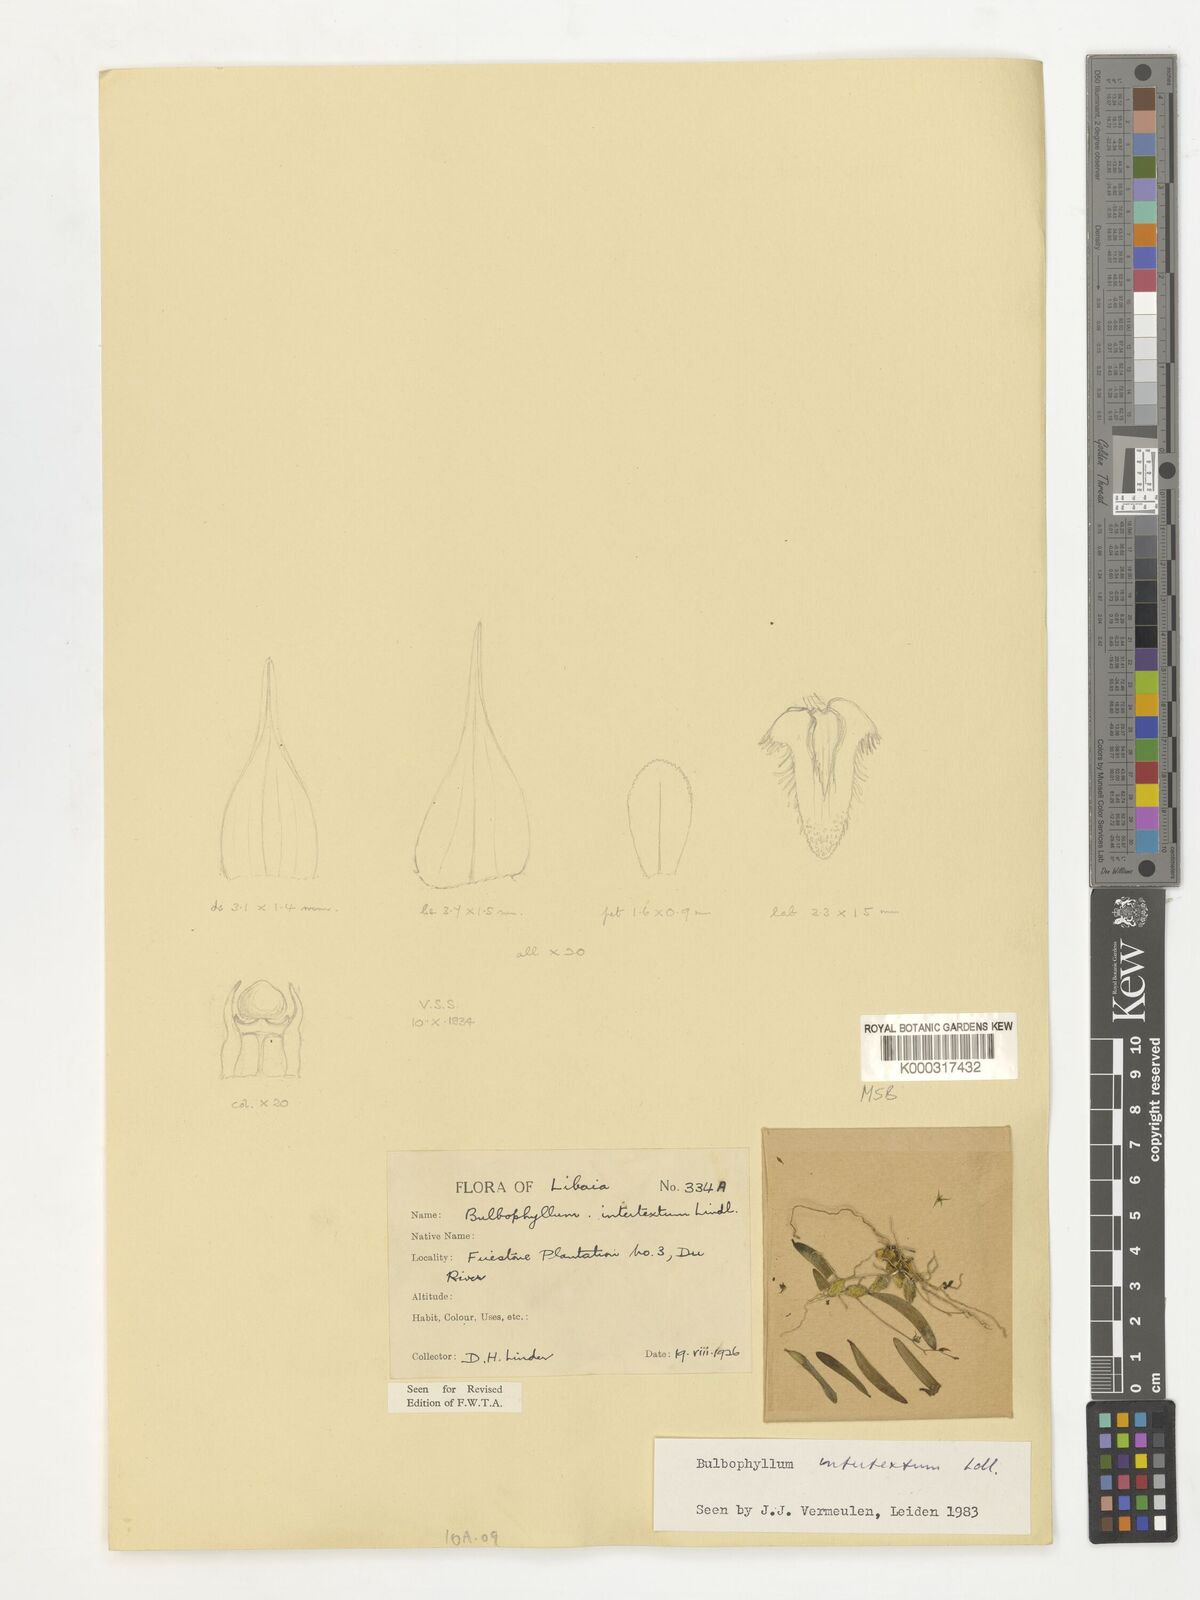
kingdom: Plantae
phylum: Tracheophyta
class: Liliopsida
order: Asparagales
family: Orchidaceae
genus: Bulbophyllum
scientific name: Bulbophyllum intertextum
